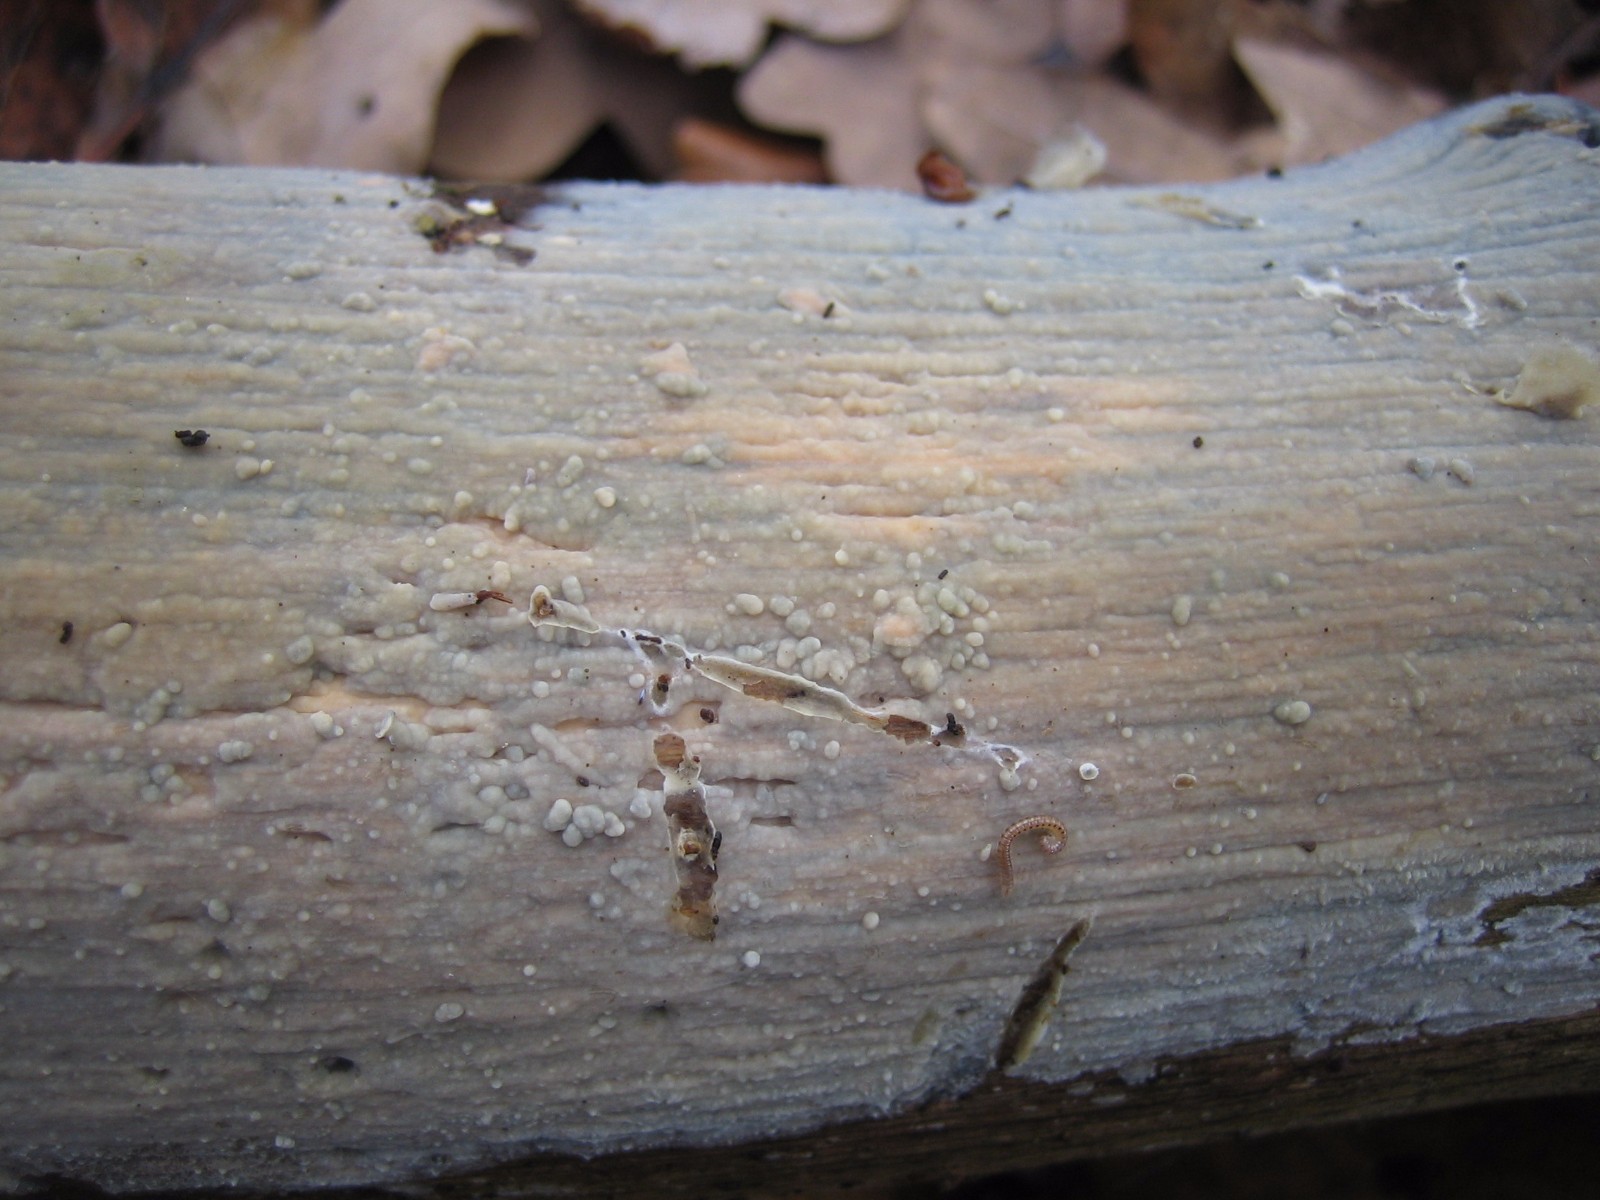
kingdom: Fungi
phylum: Basidiomycota
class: Agaricomycetes
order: Agaricales
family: Radulomycetaceae
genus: Radulomyces
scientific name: Radulomyces confluens
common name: glat naftalinskind
